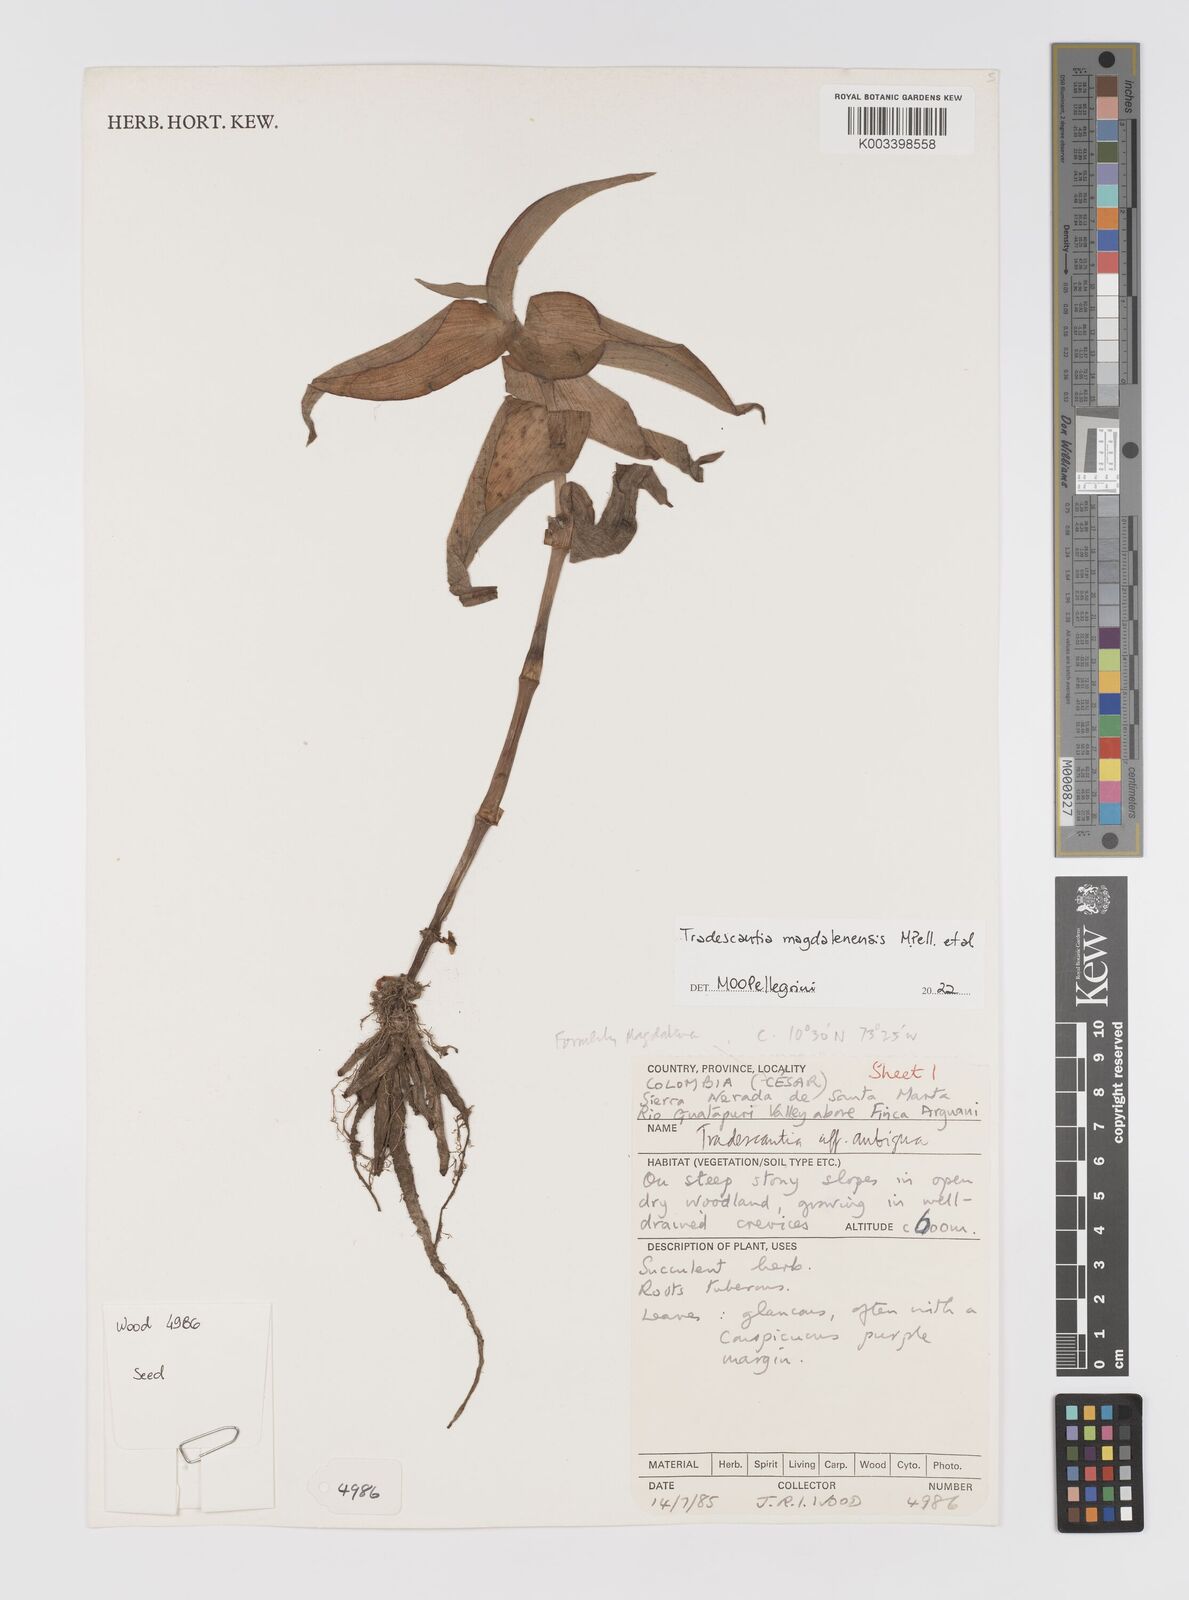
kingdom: Plantae
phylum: Tracheophyta
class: Liliopsida
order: Commelinales
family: Commelinaceae
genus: Tradescantia
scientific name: Tradescantia
